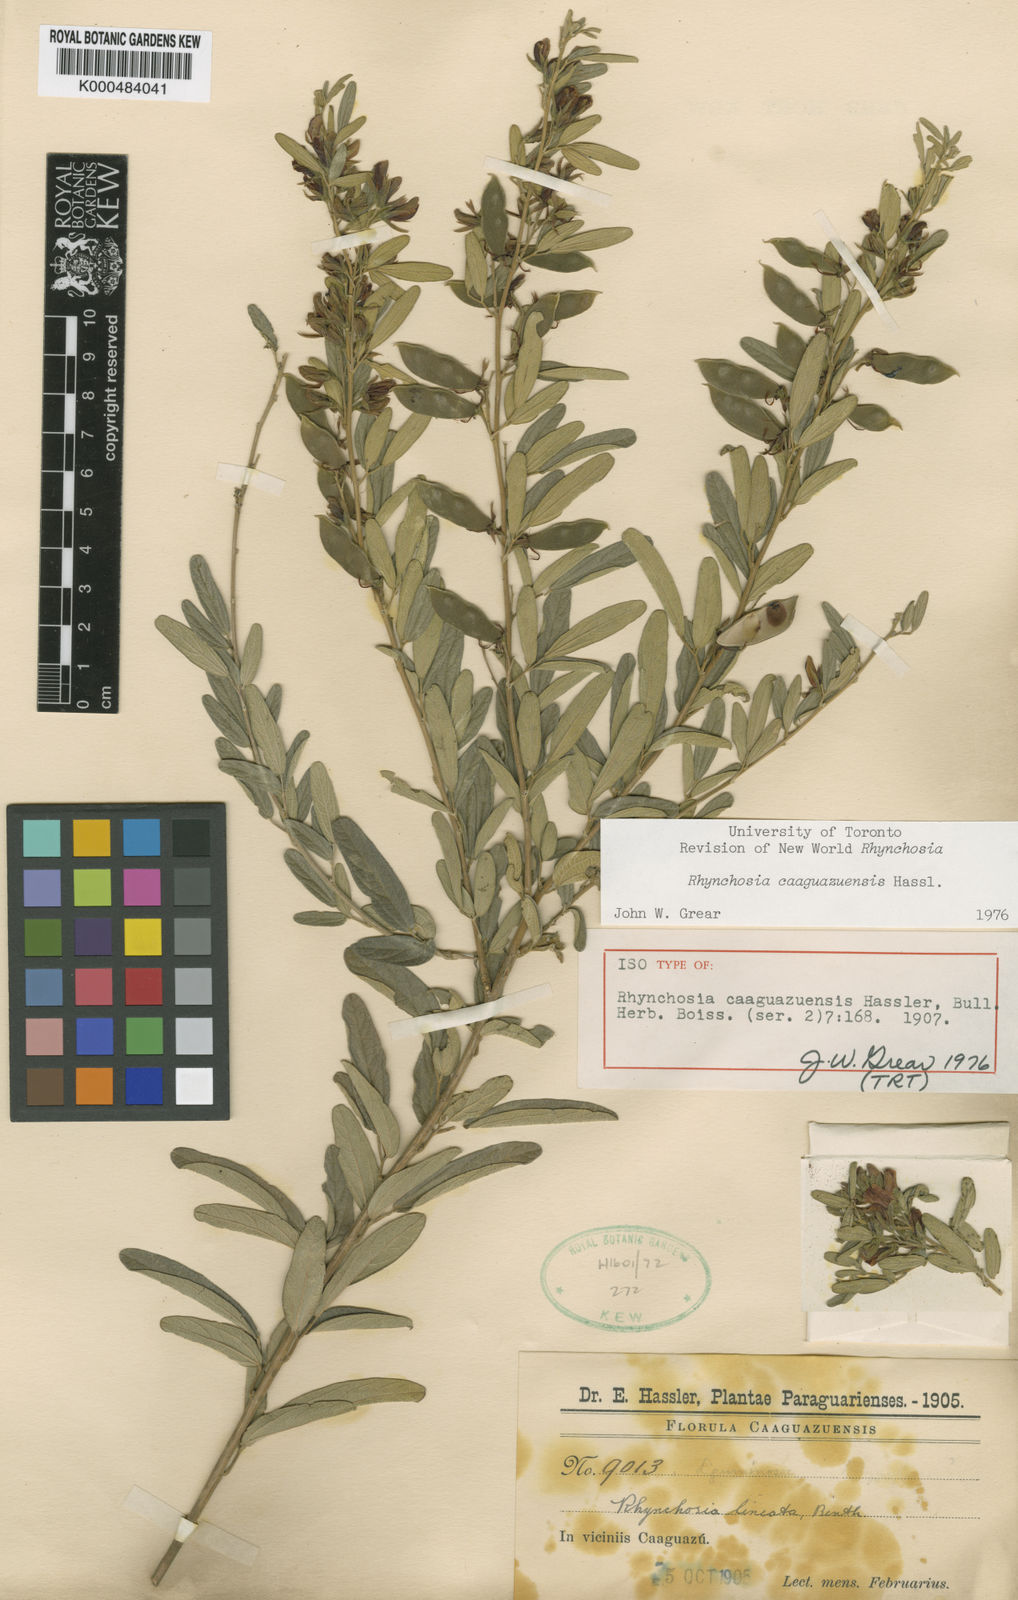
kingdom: Plantae
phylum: Tracheophyta
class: Magnoliopsida
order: Fabales
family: Fabaceae
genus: Rhynchosia
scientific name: Rhynchosia caaguazuensis
